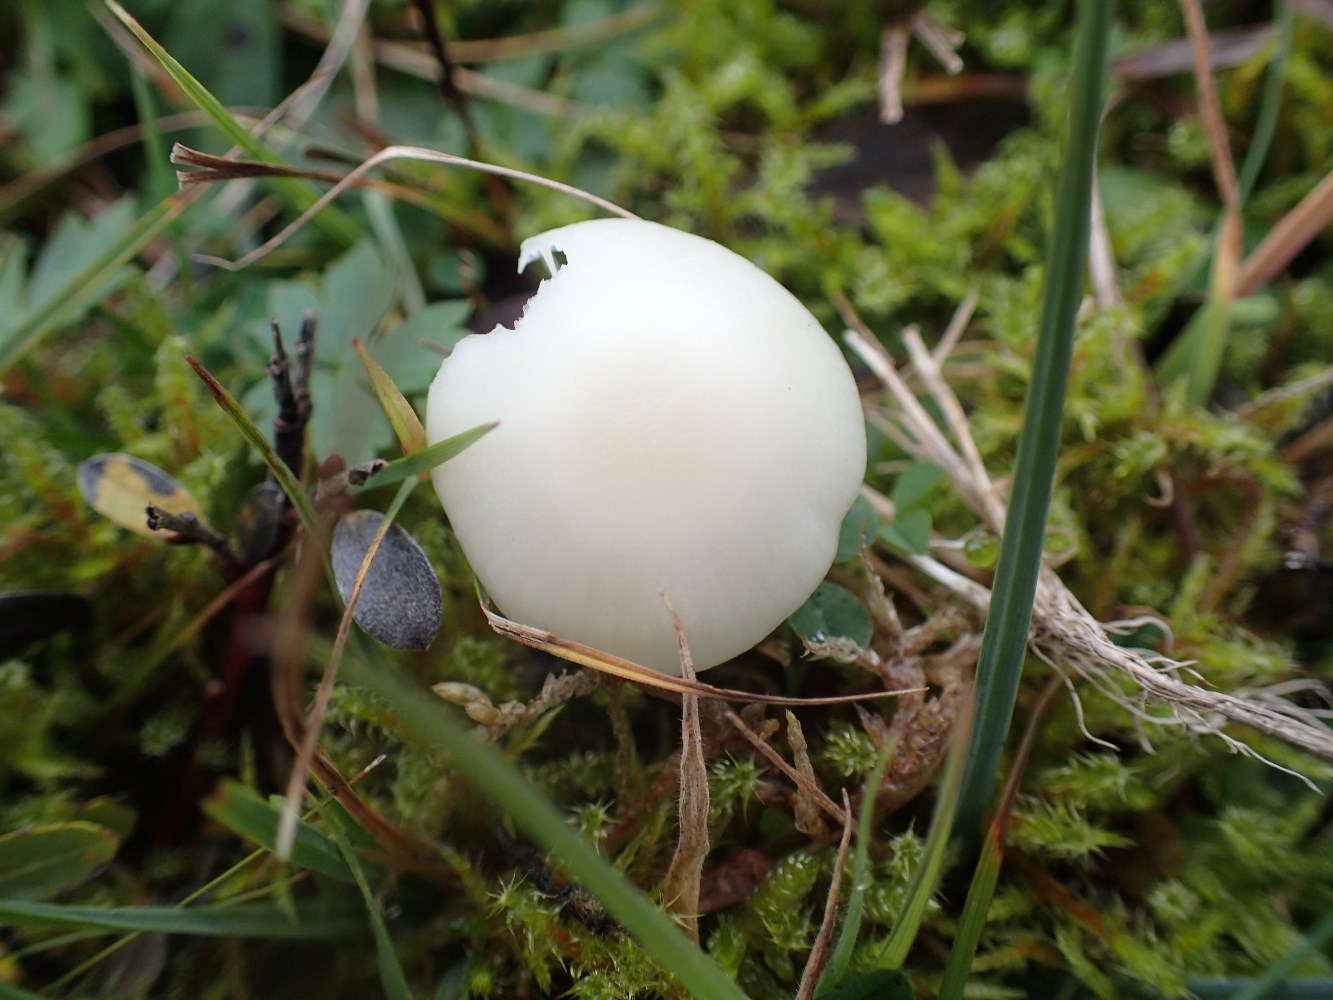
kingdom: Fungi
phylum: Basidiomycota
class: Agaricomycetes
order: Agaricales
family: Hygrophoraceae
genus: Cuphophyllus
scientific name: Cuphophyllus virgineus
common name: snehvid vokshat
